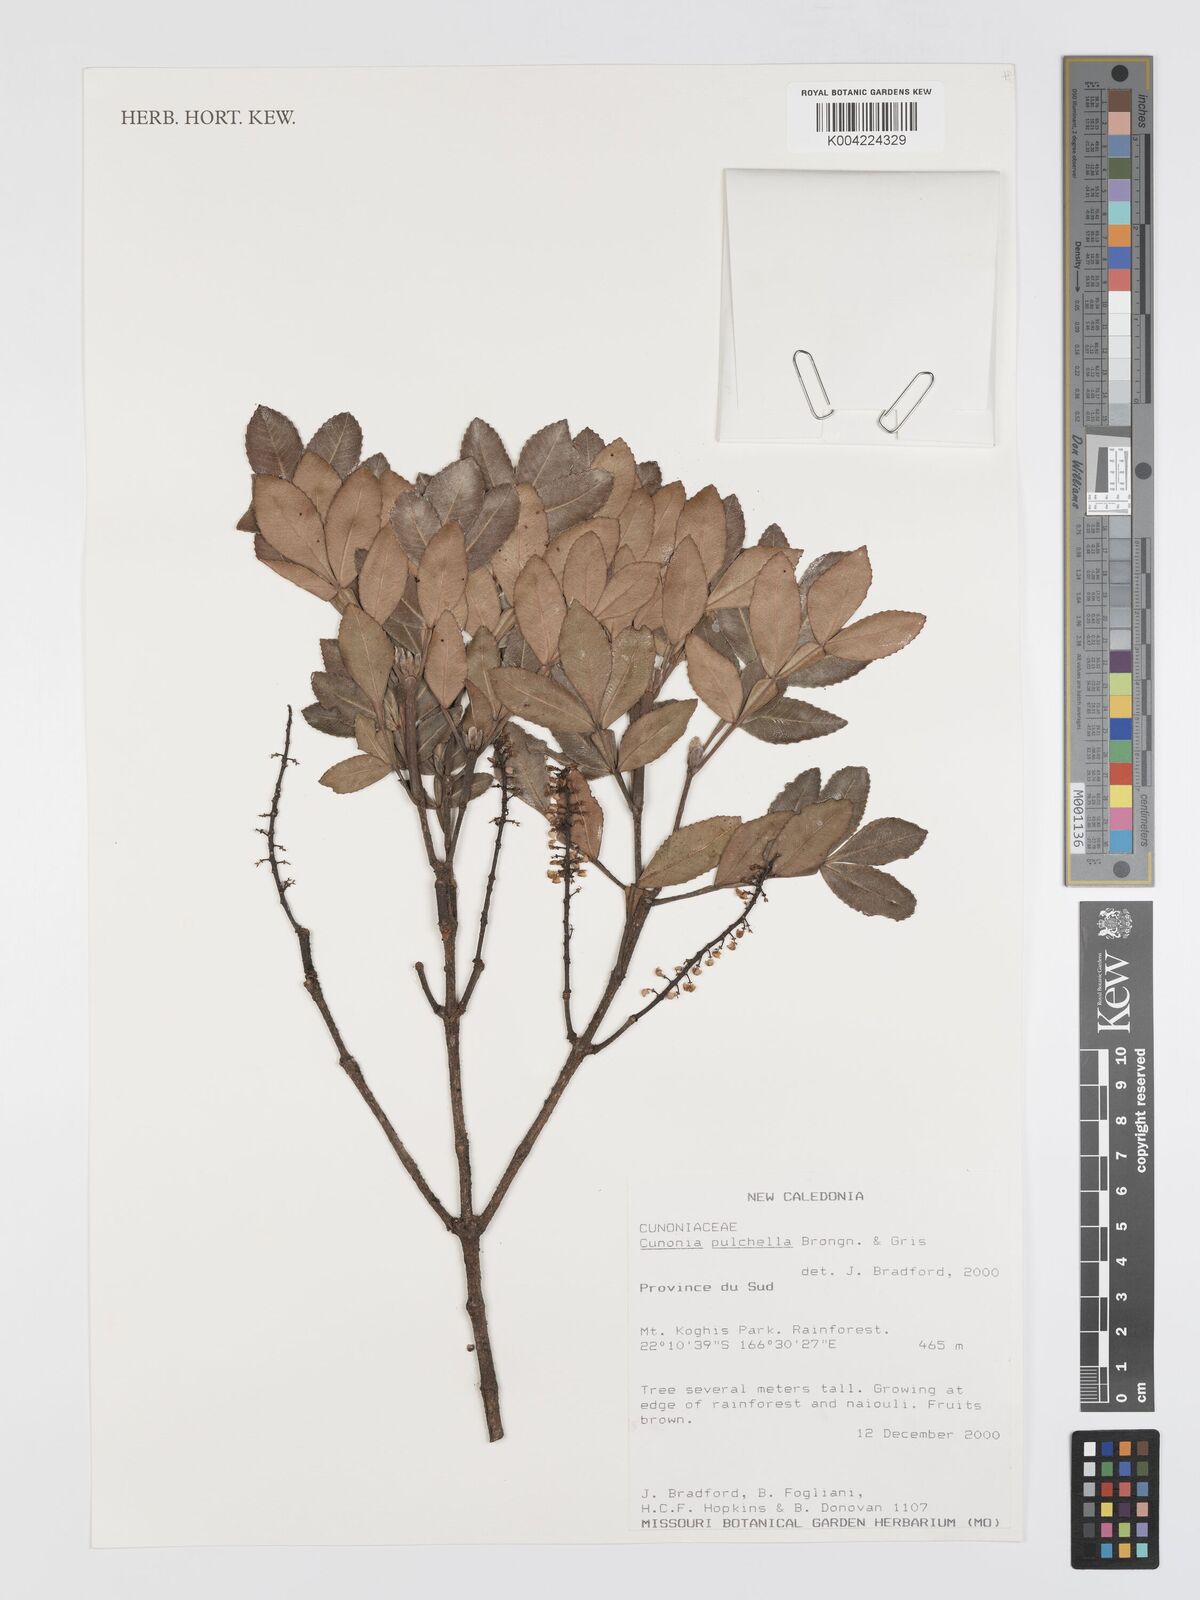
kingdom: Plantae
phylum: Tracheophyta
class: Magnoliopsida
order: Oxalidales
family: Cunoniaceae
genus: Cunonia
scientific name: Cunonia pulchella
